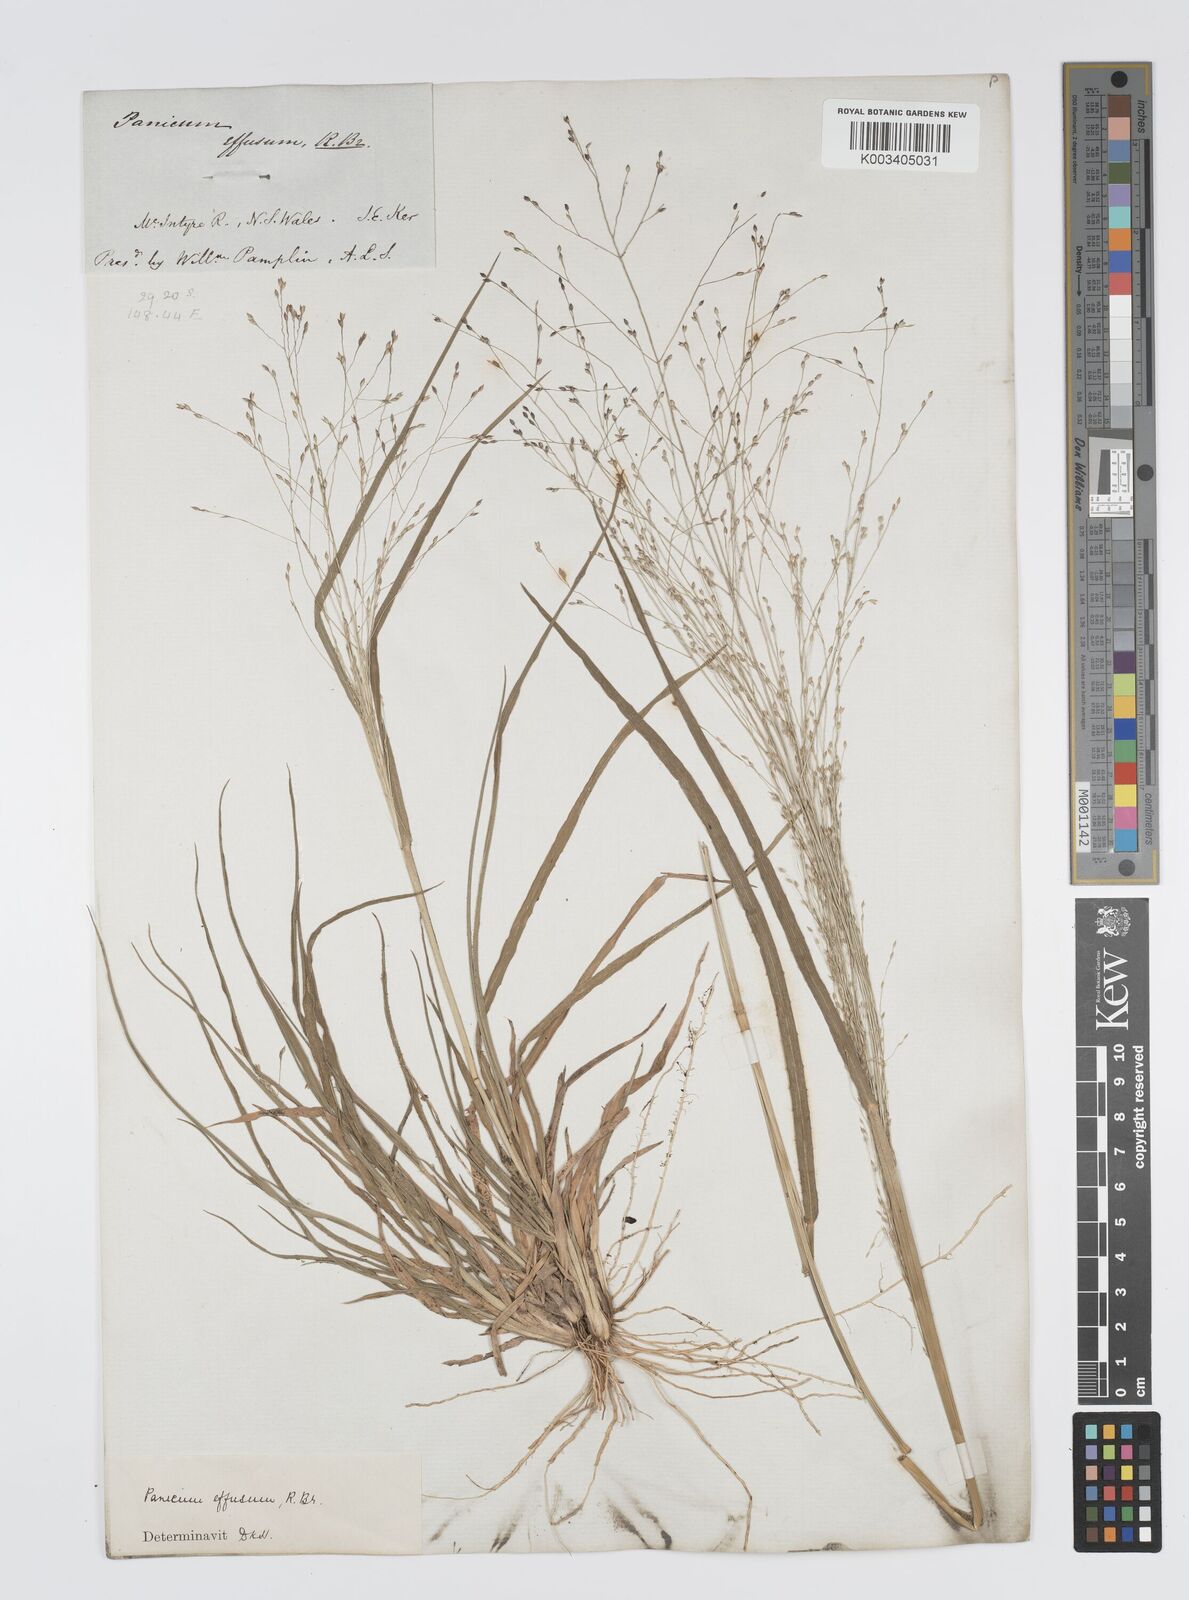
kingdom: Plantae
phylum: Tracheophyta
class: Liliopsida
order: Poales
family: Poaceae
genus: Panicum
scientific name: Panicum effusum
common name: Hairy panic grass
